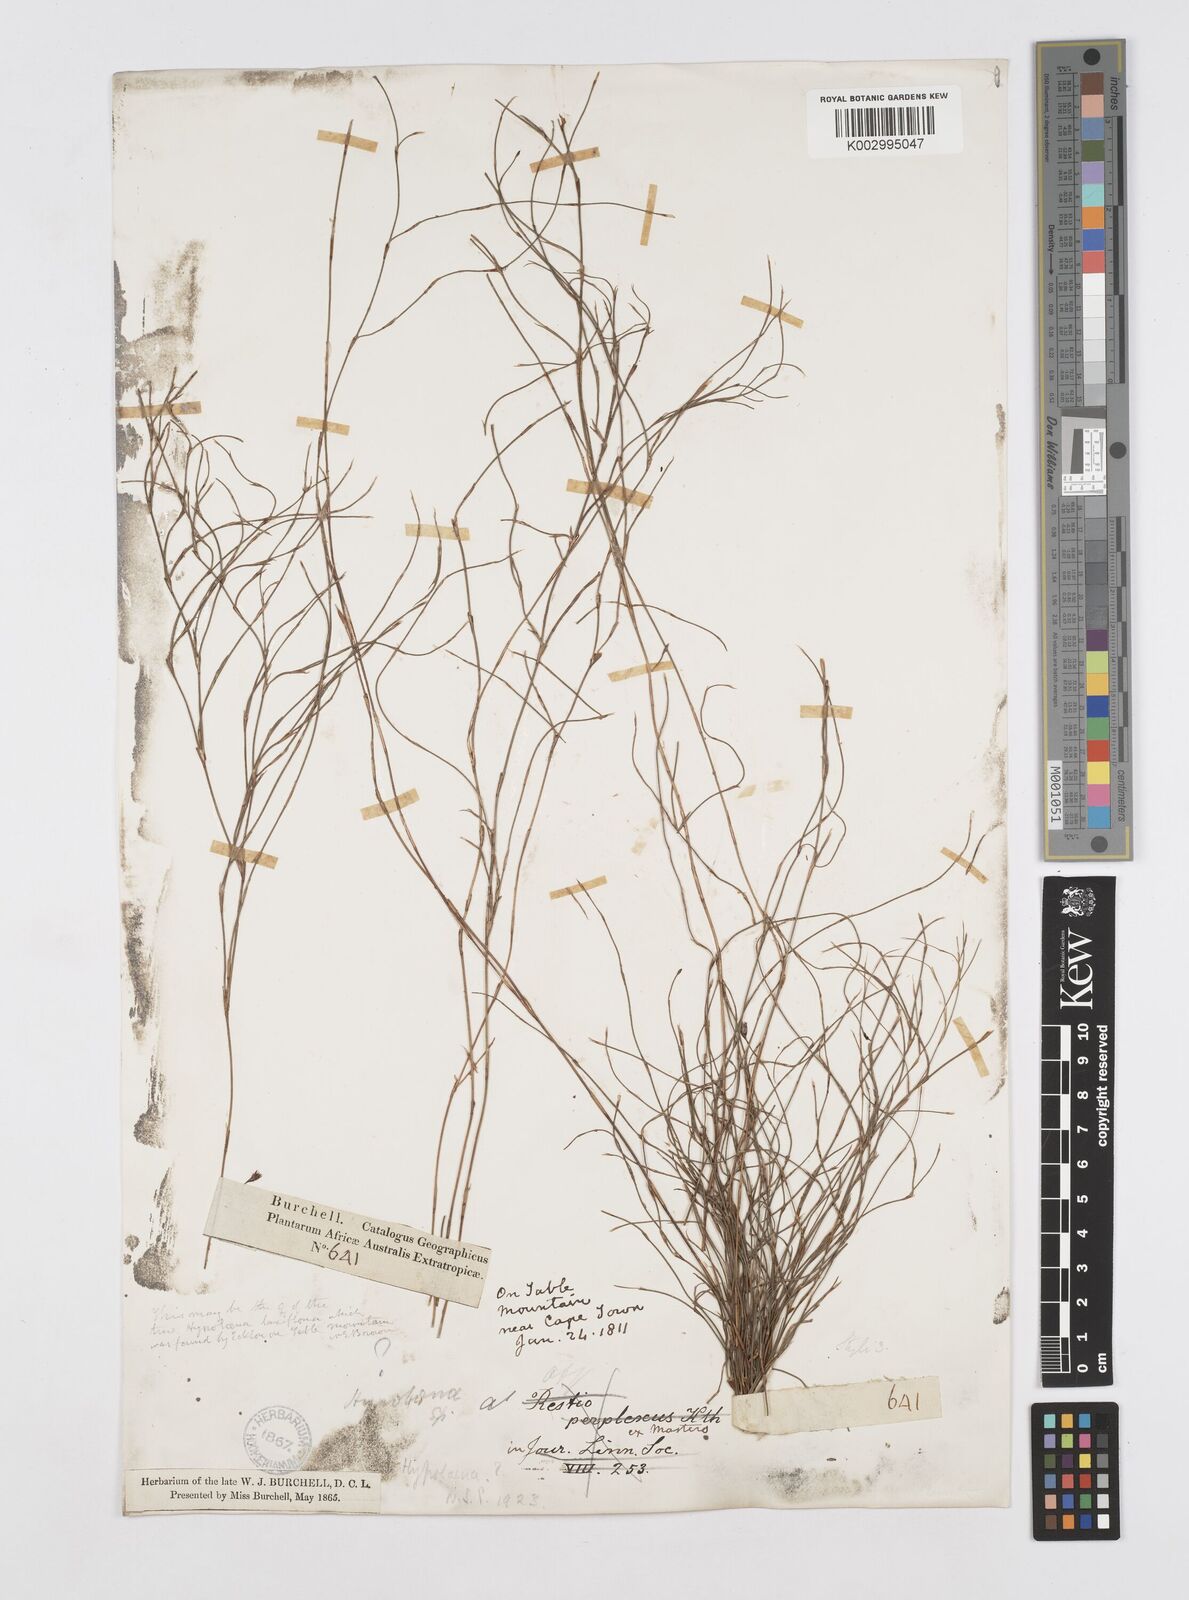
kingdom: Plantae
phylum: Tracheophyta
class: Liliopsida
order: Poales
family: Restionaceae
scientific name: Restionaceae
